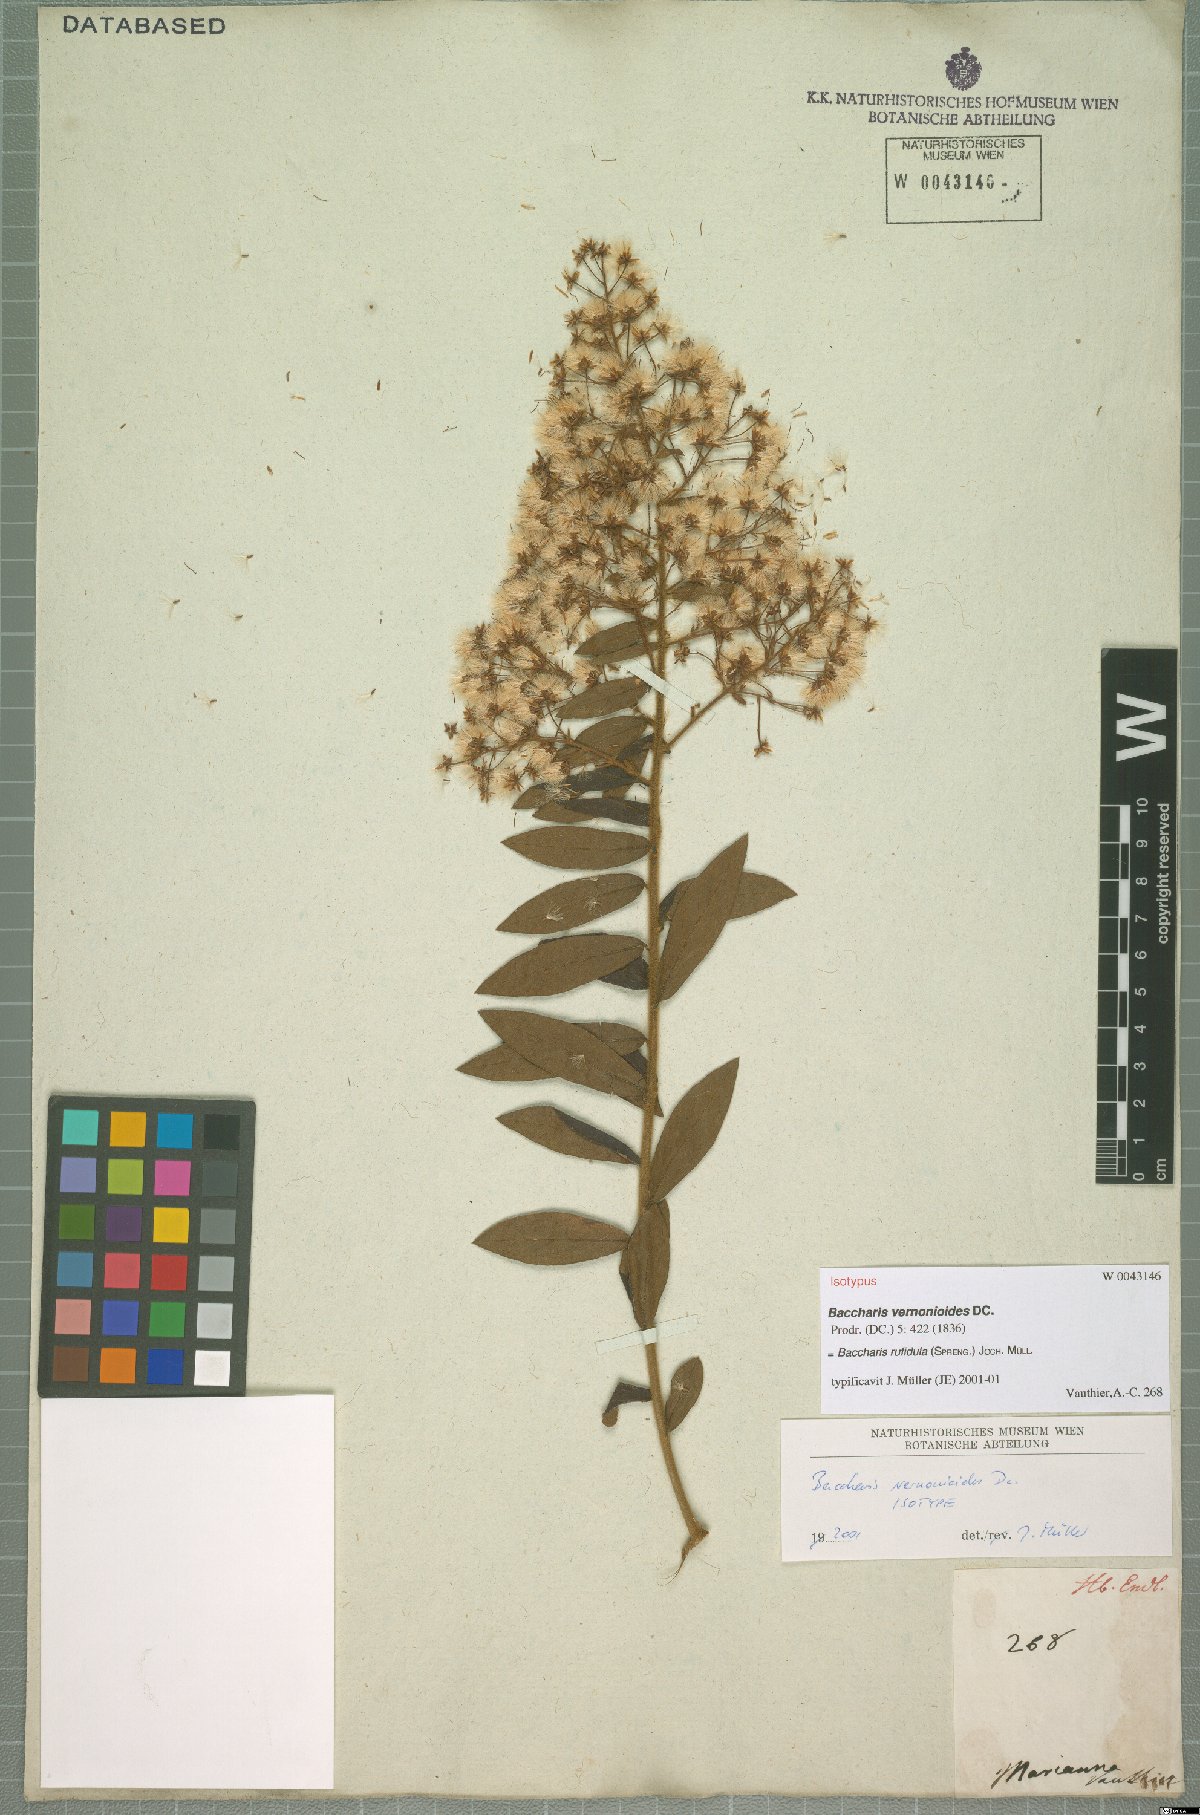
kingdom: Plantae
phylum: Tracheophyta
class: Magnoliopsida
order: Asterales
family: Asteraceae
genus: Baccharis
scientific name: Baccharis rufidula
